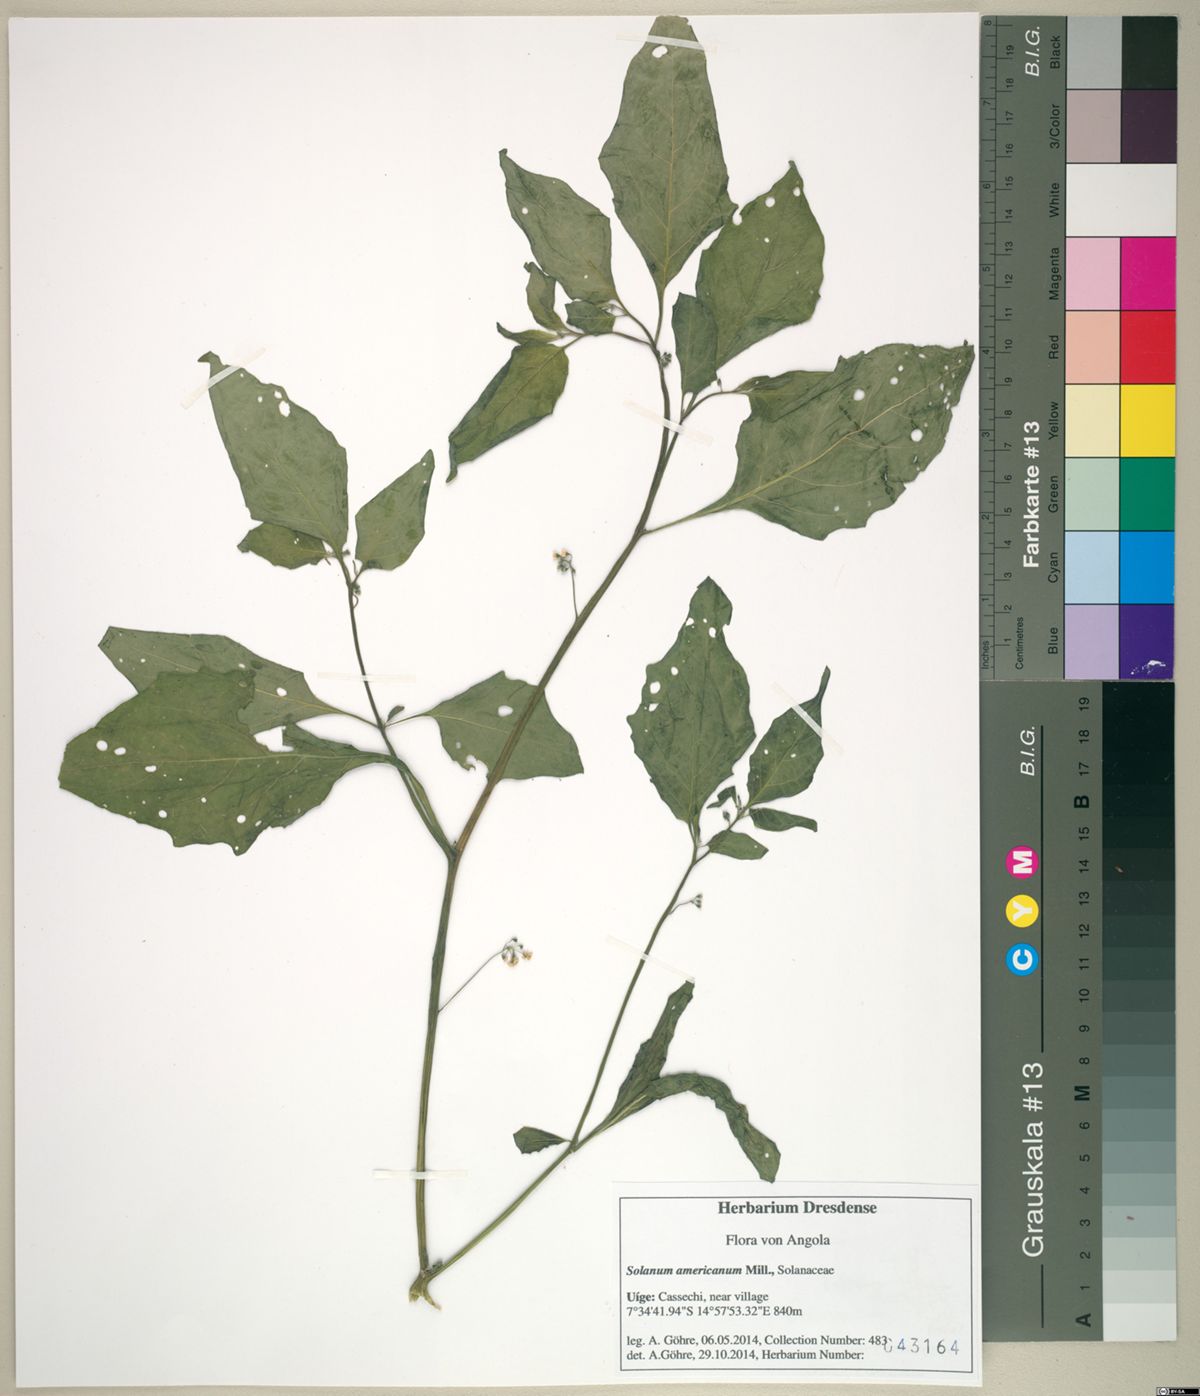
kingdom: Plantae
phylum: Tracheophyta
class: Magnoliopsida
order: Solanales
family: Solanaceae
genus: Solanum
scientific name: Solanum americanum
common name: American black nightshade
